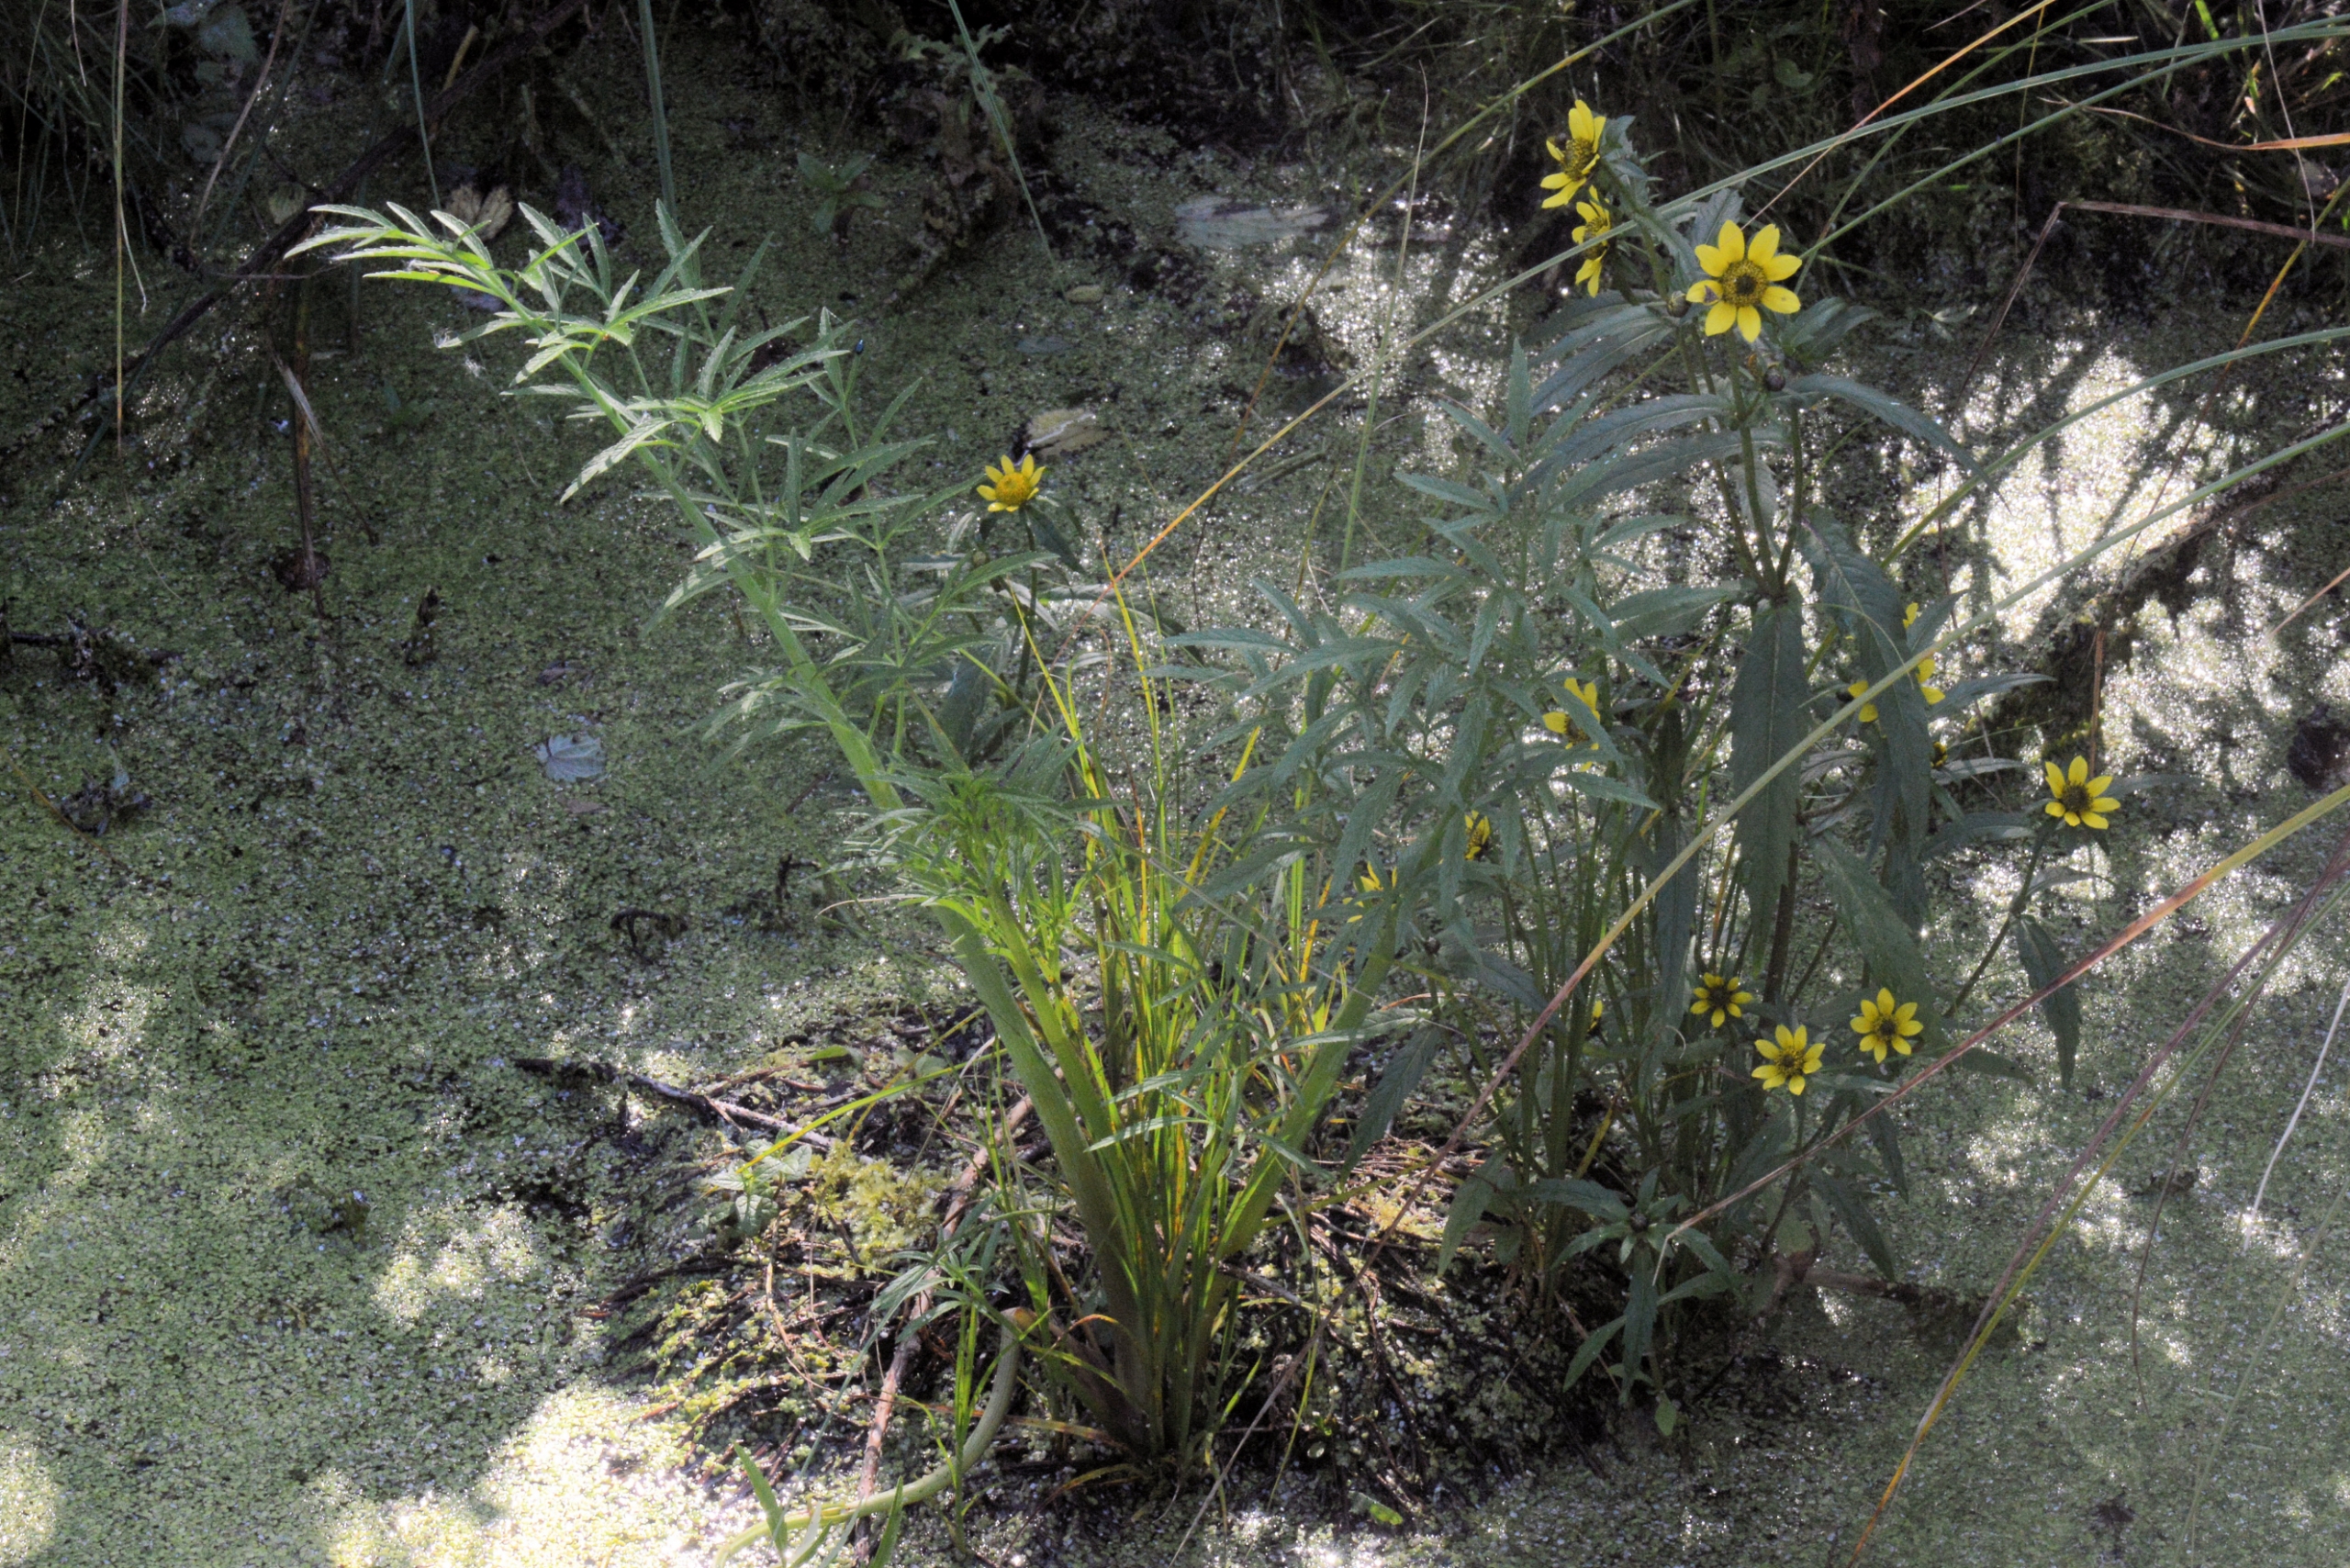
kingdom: Plantae
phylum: Tracheophyta
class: Magnoliopsida
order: Apiales
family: Apiaceae
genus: Cicuta
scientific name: Cicuta virosa
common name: Gifttyde
